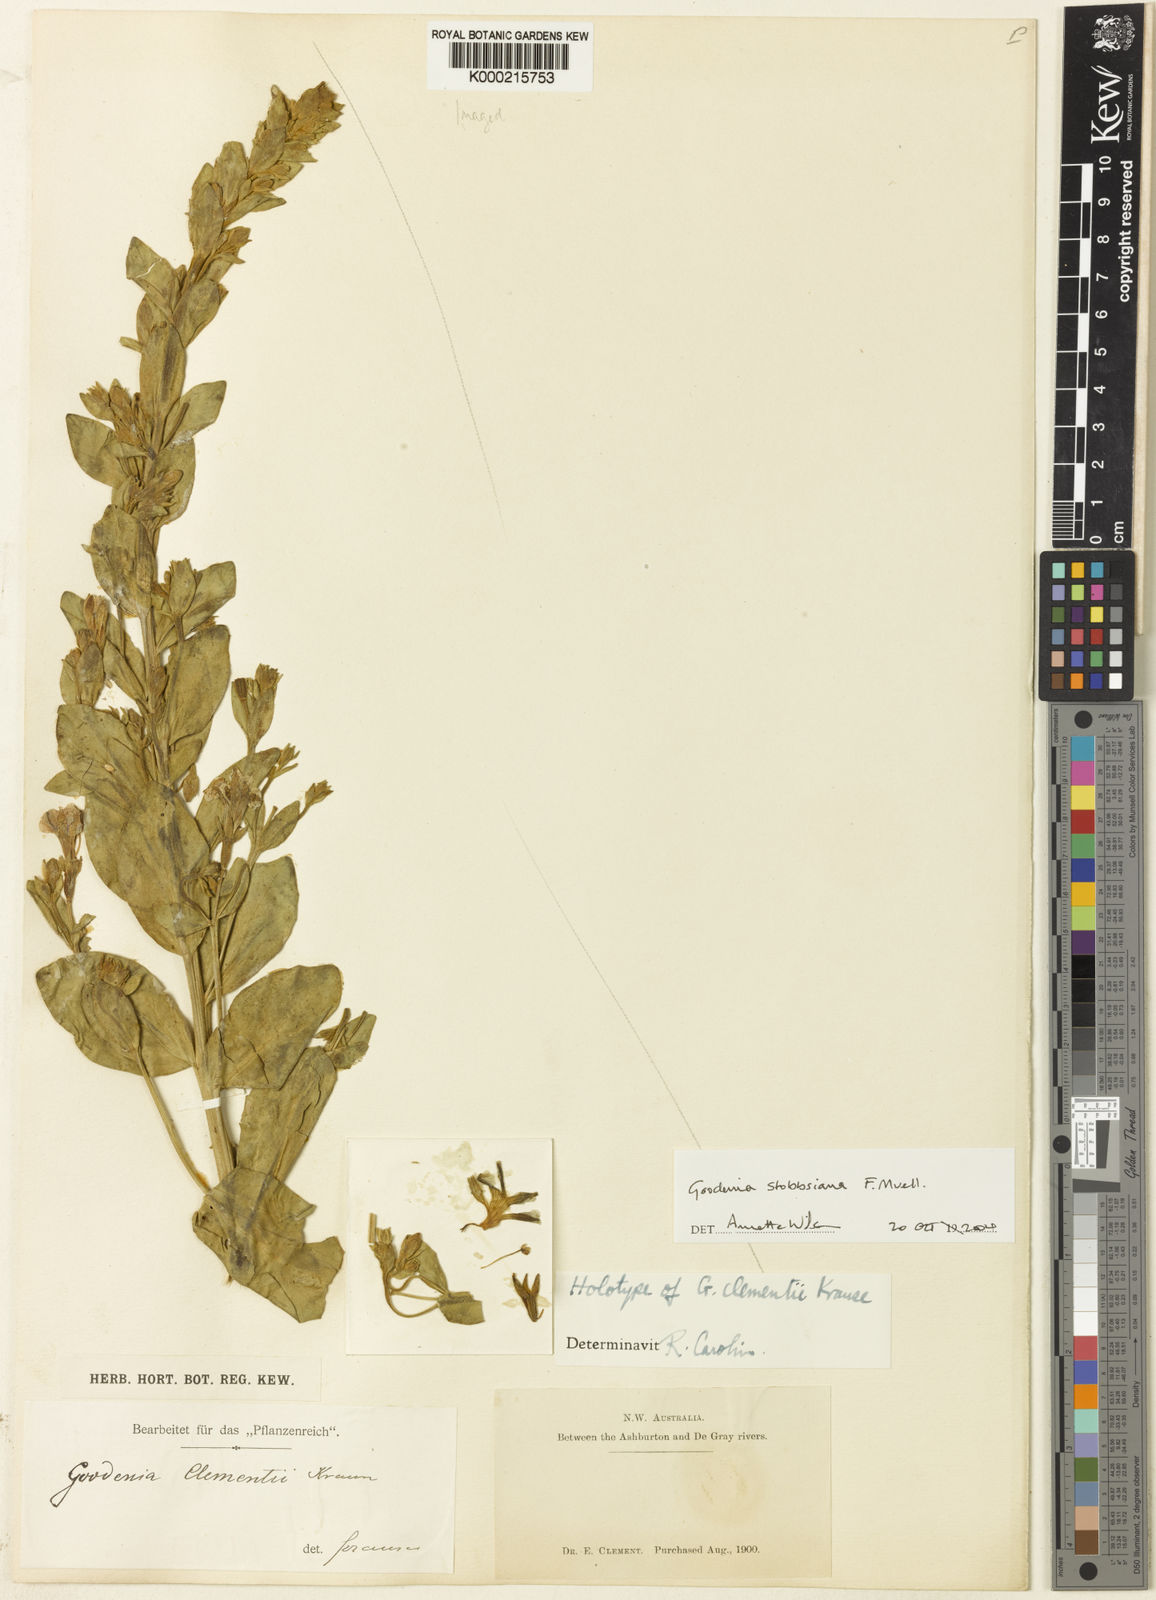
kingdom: Plantae
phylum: Tracheophyta
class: Magnoliopsida
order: Asterales
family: Goodeniaceae
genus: Goodenia
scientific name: Goodenia stobbsiana
